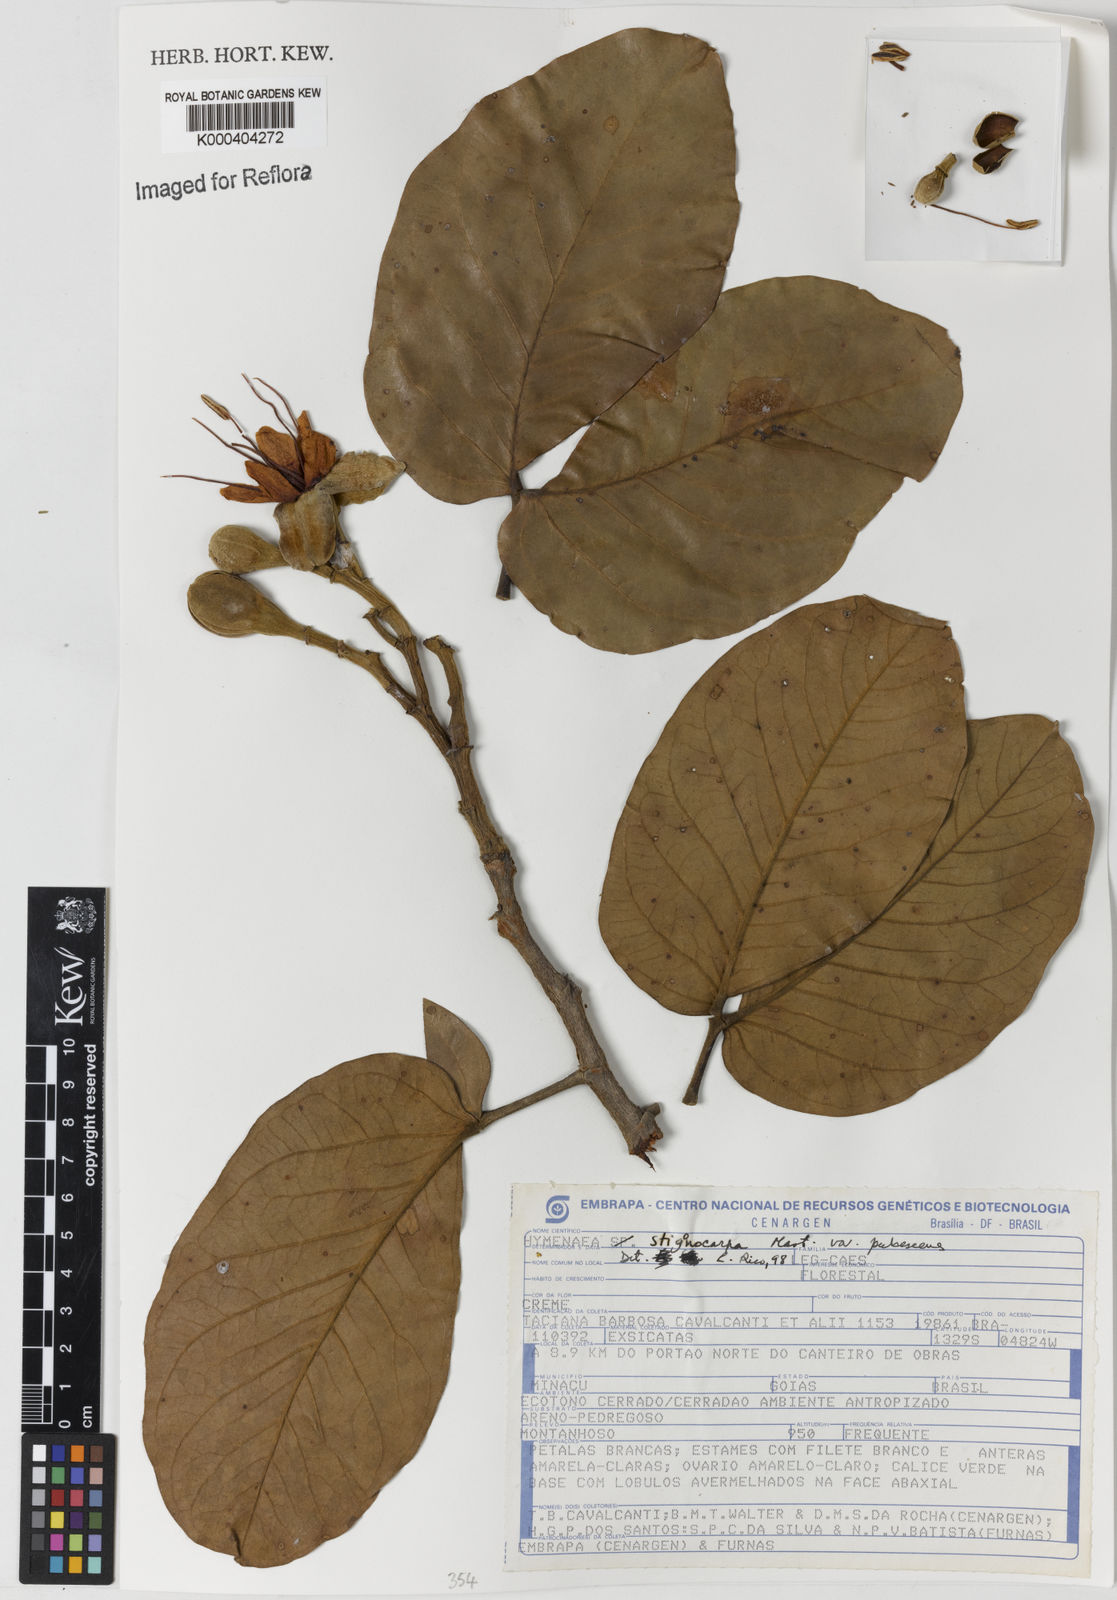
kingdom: Plantae
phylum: Tracheophyta
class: Magnoliopsida
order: Fabales
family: Fabaceae
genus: Hymenaea
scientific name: Hymenaea stigonocarpa
